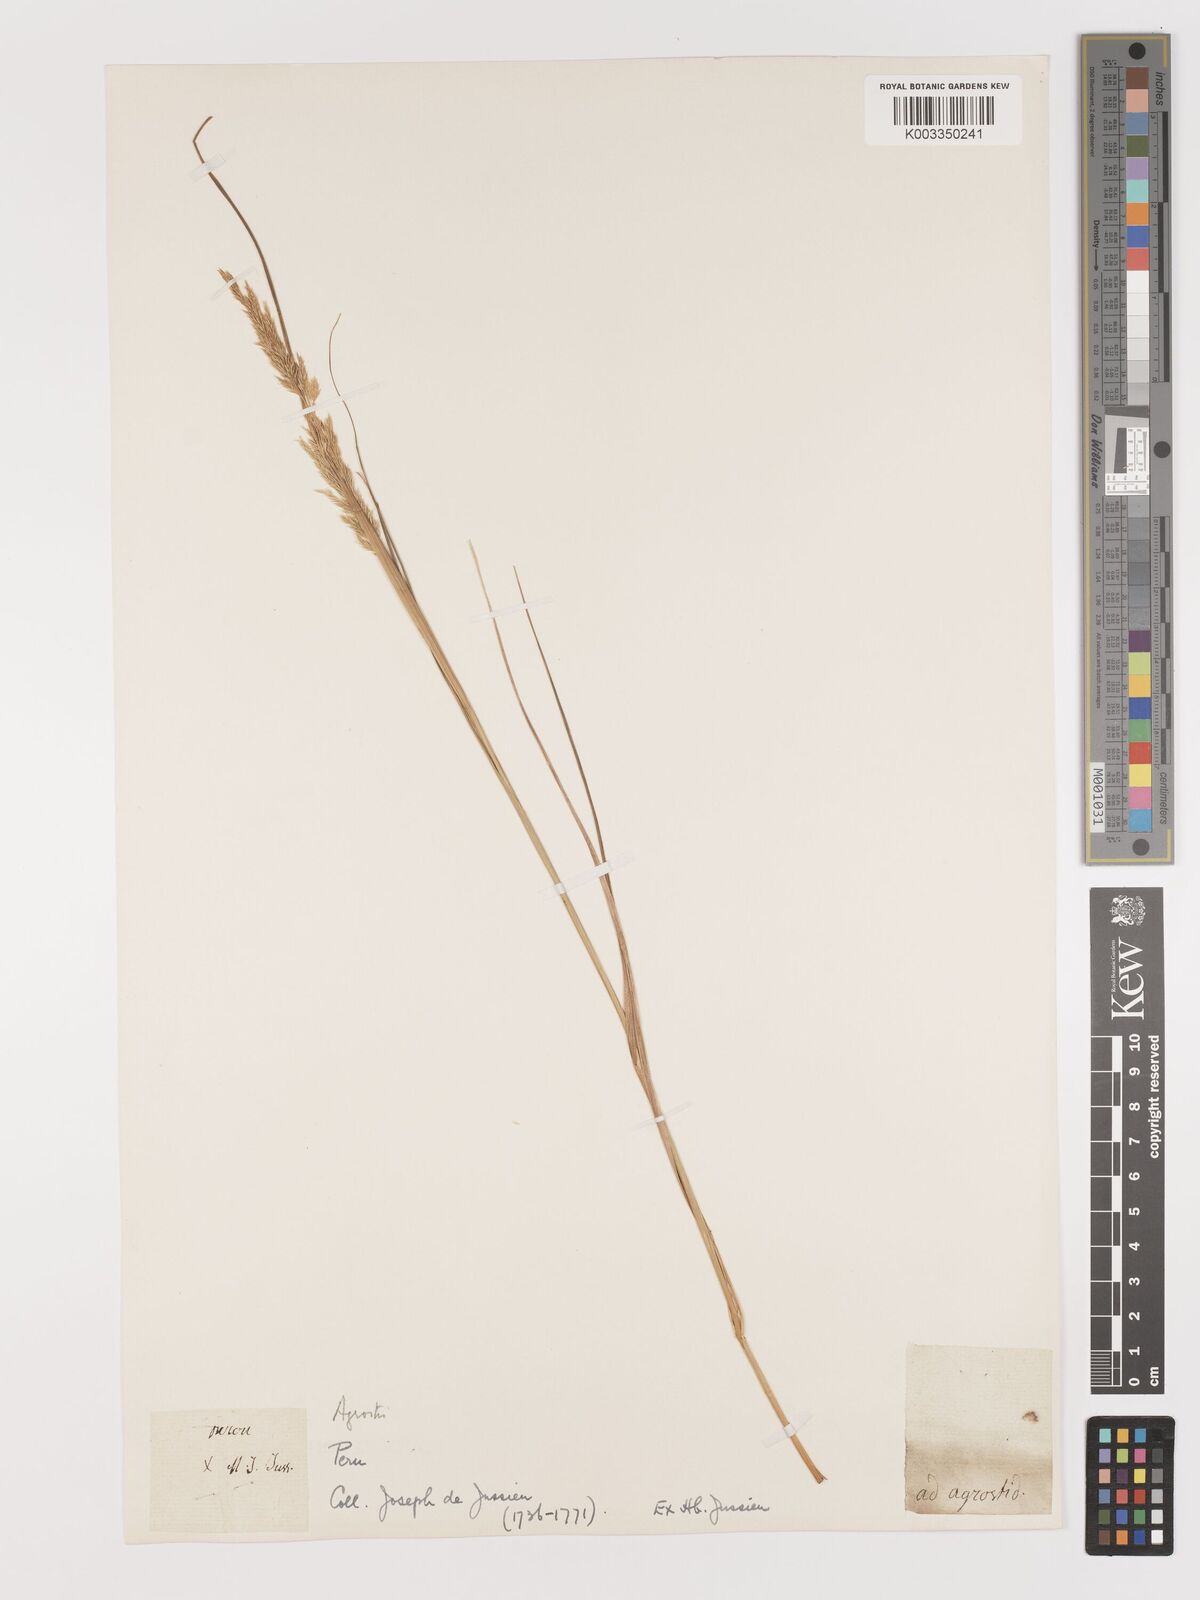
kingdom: Plantae
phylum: Tracheophyta
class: Liliopsida
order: Poales
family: Poaceae
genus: Agrostis
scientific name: Agrostis
